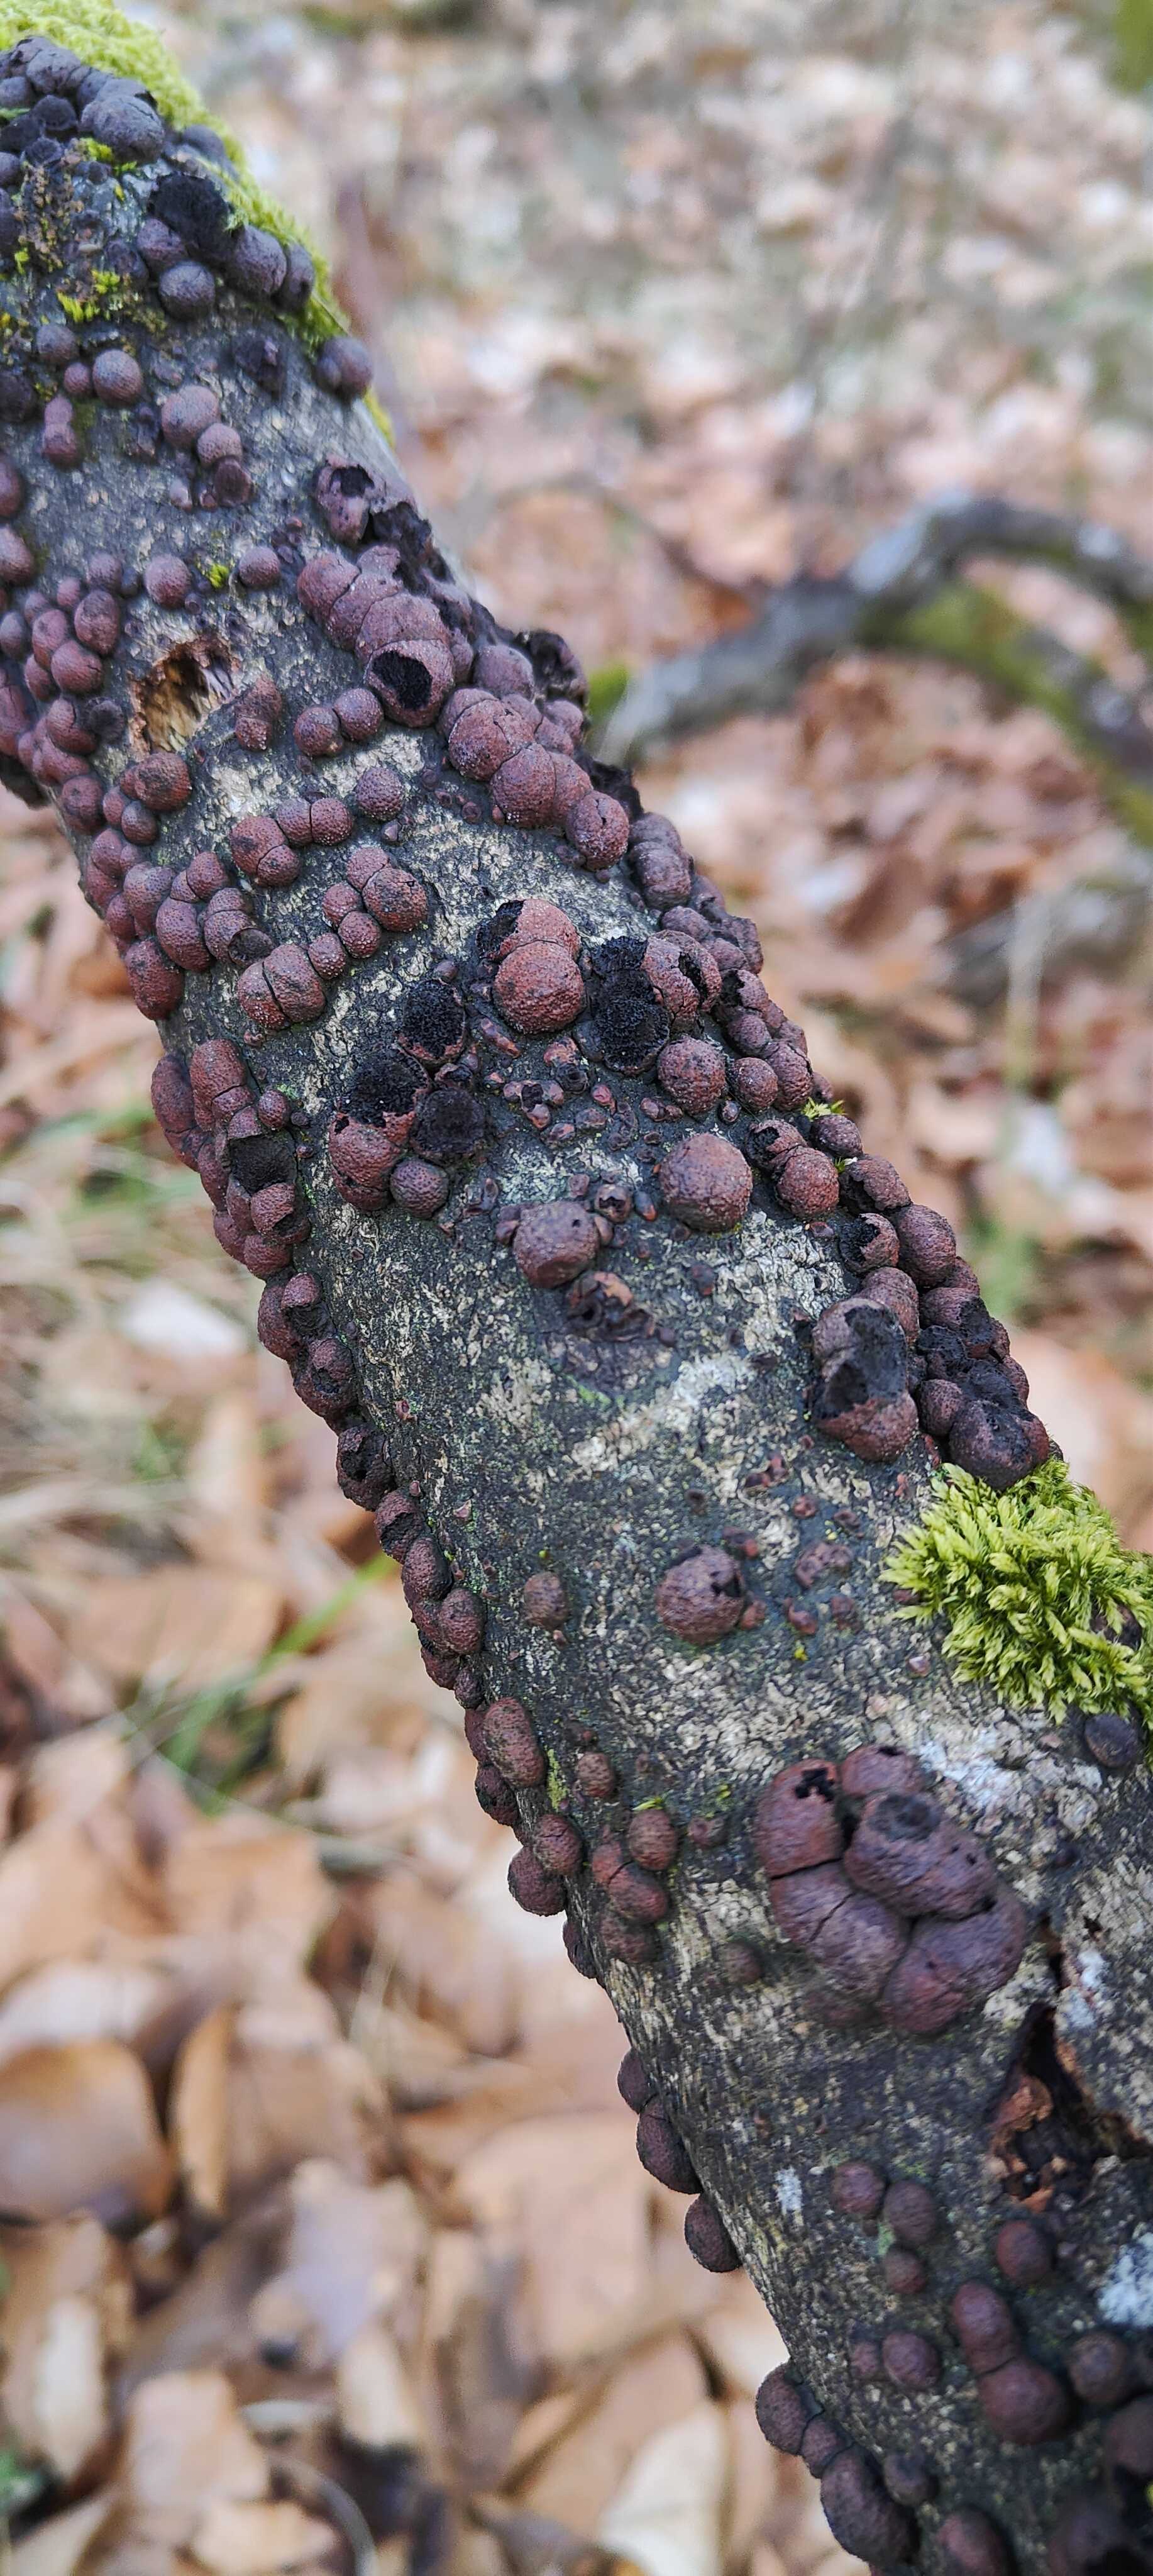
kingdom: Fungi
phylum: Ascomycota
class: Sordariomycetes
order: Xylariales
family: Hypoxylaceae
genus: Hypoxylon
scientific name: Hypoxylon fragiforme
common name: kuljordbær
